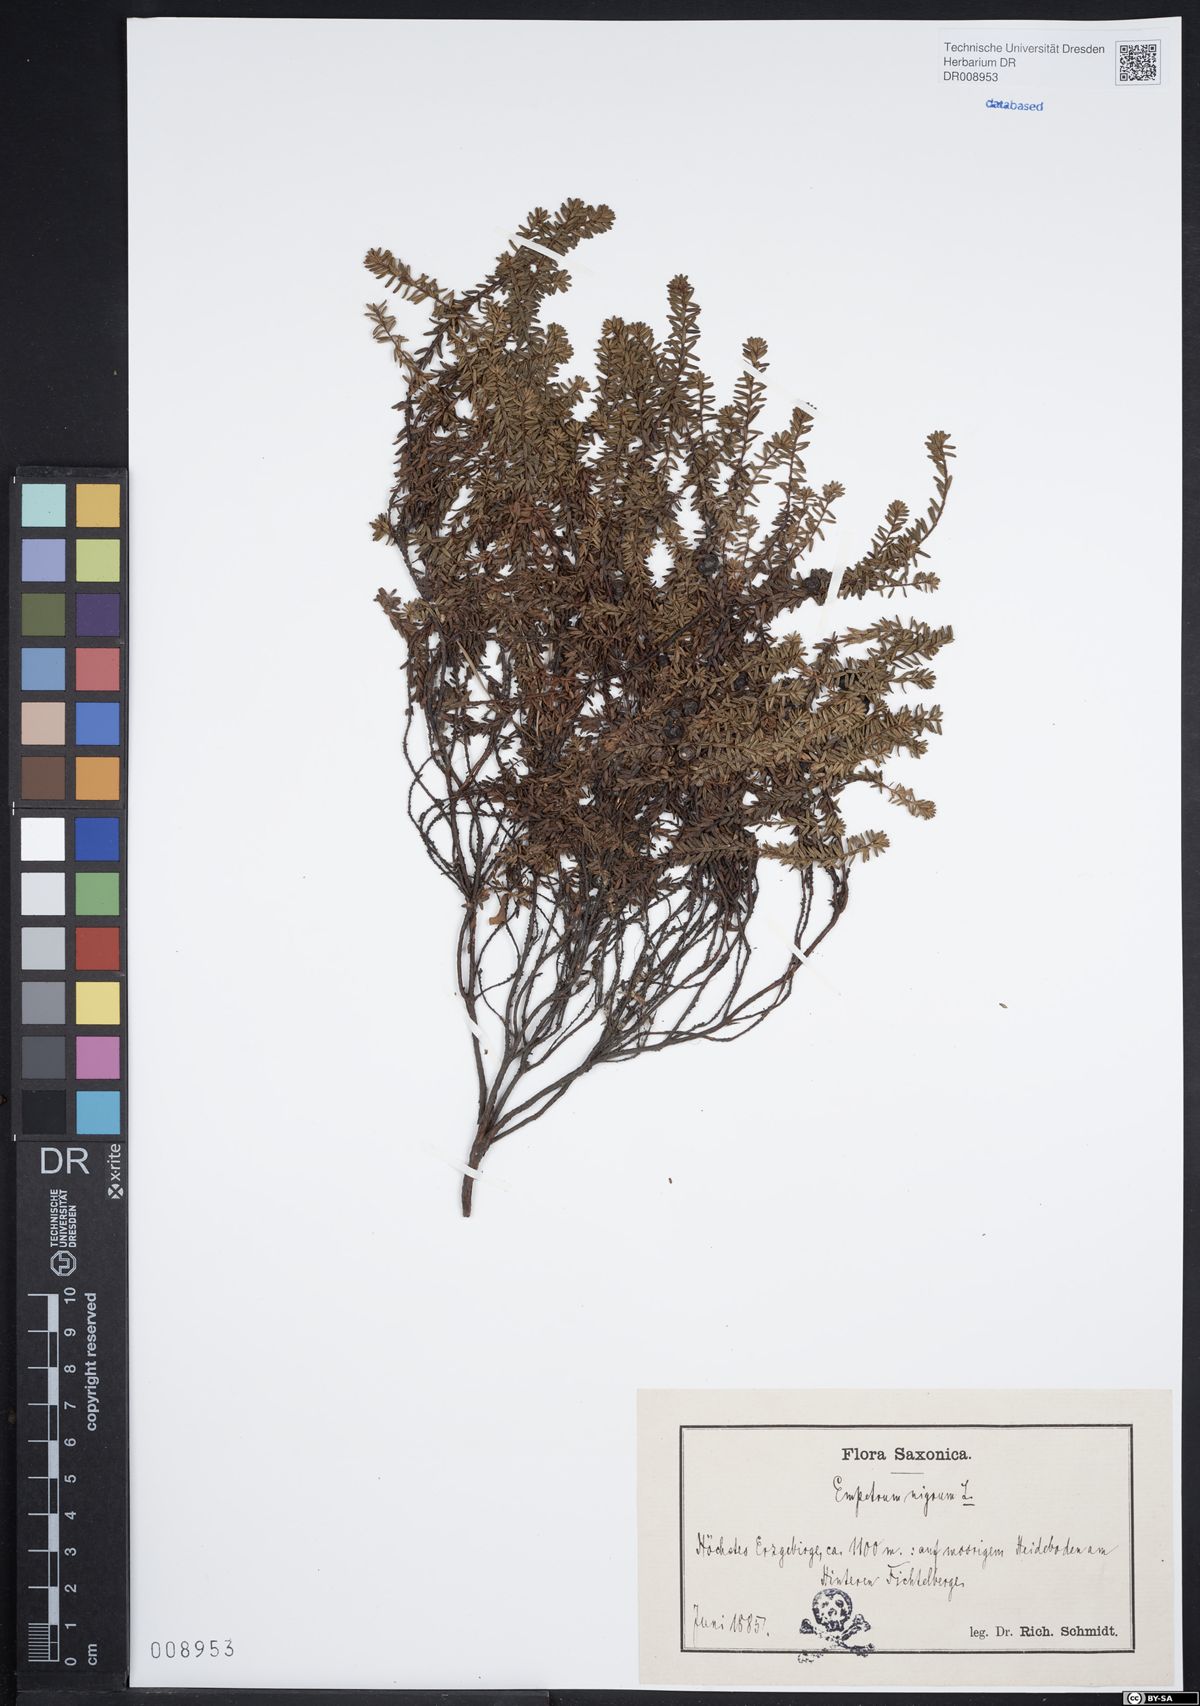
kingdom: Plantae
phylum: Tracheophyta
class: Magnoliopsida
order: Ericales
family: Ericaceae
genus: Empetrum
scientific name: Empetrum nigrum
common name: Black crowberry
